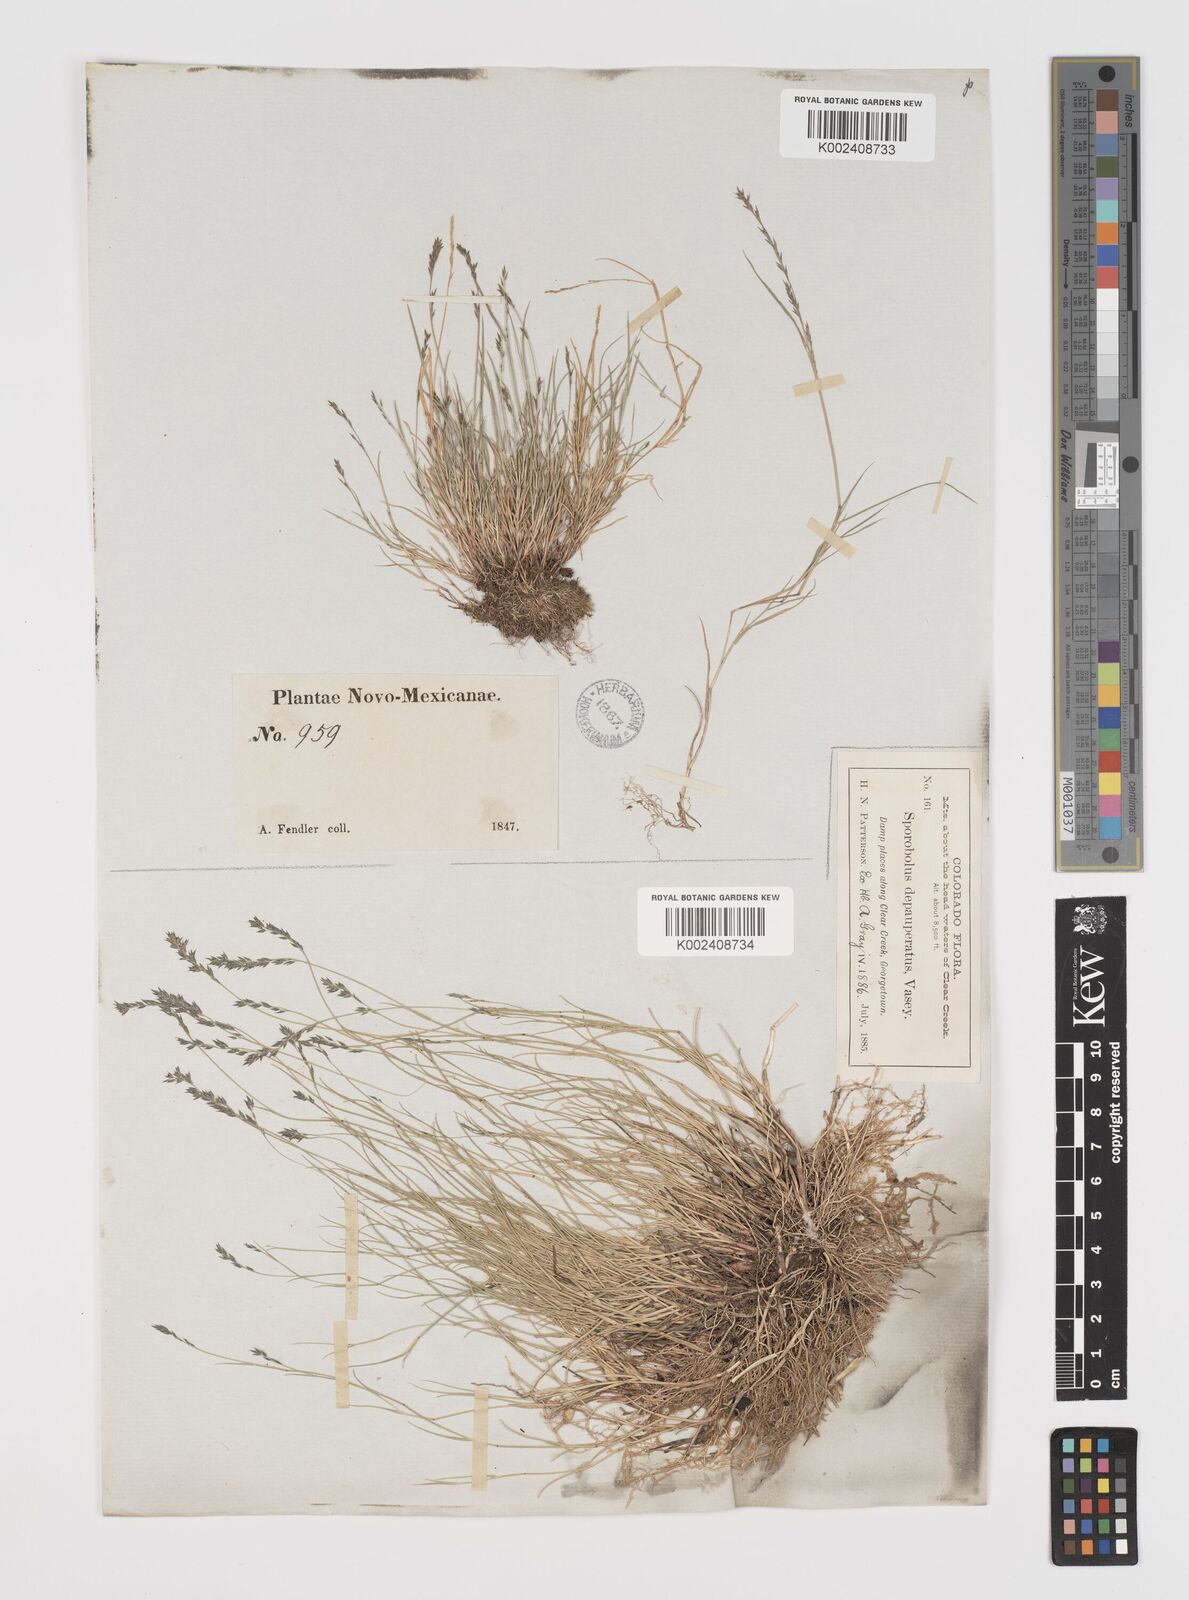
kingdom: Plantae
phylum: Tracheophyta
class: Liliopsida
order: Poales
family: Poaceae
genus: Muhlenbergia
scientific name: Muhlenbergia richardsonis
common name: Mat muhly
